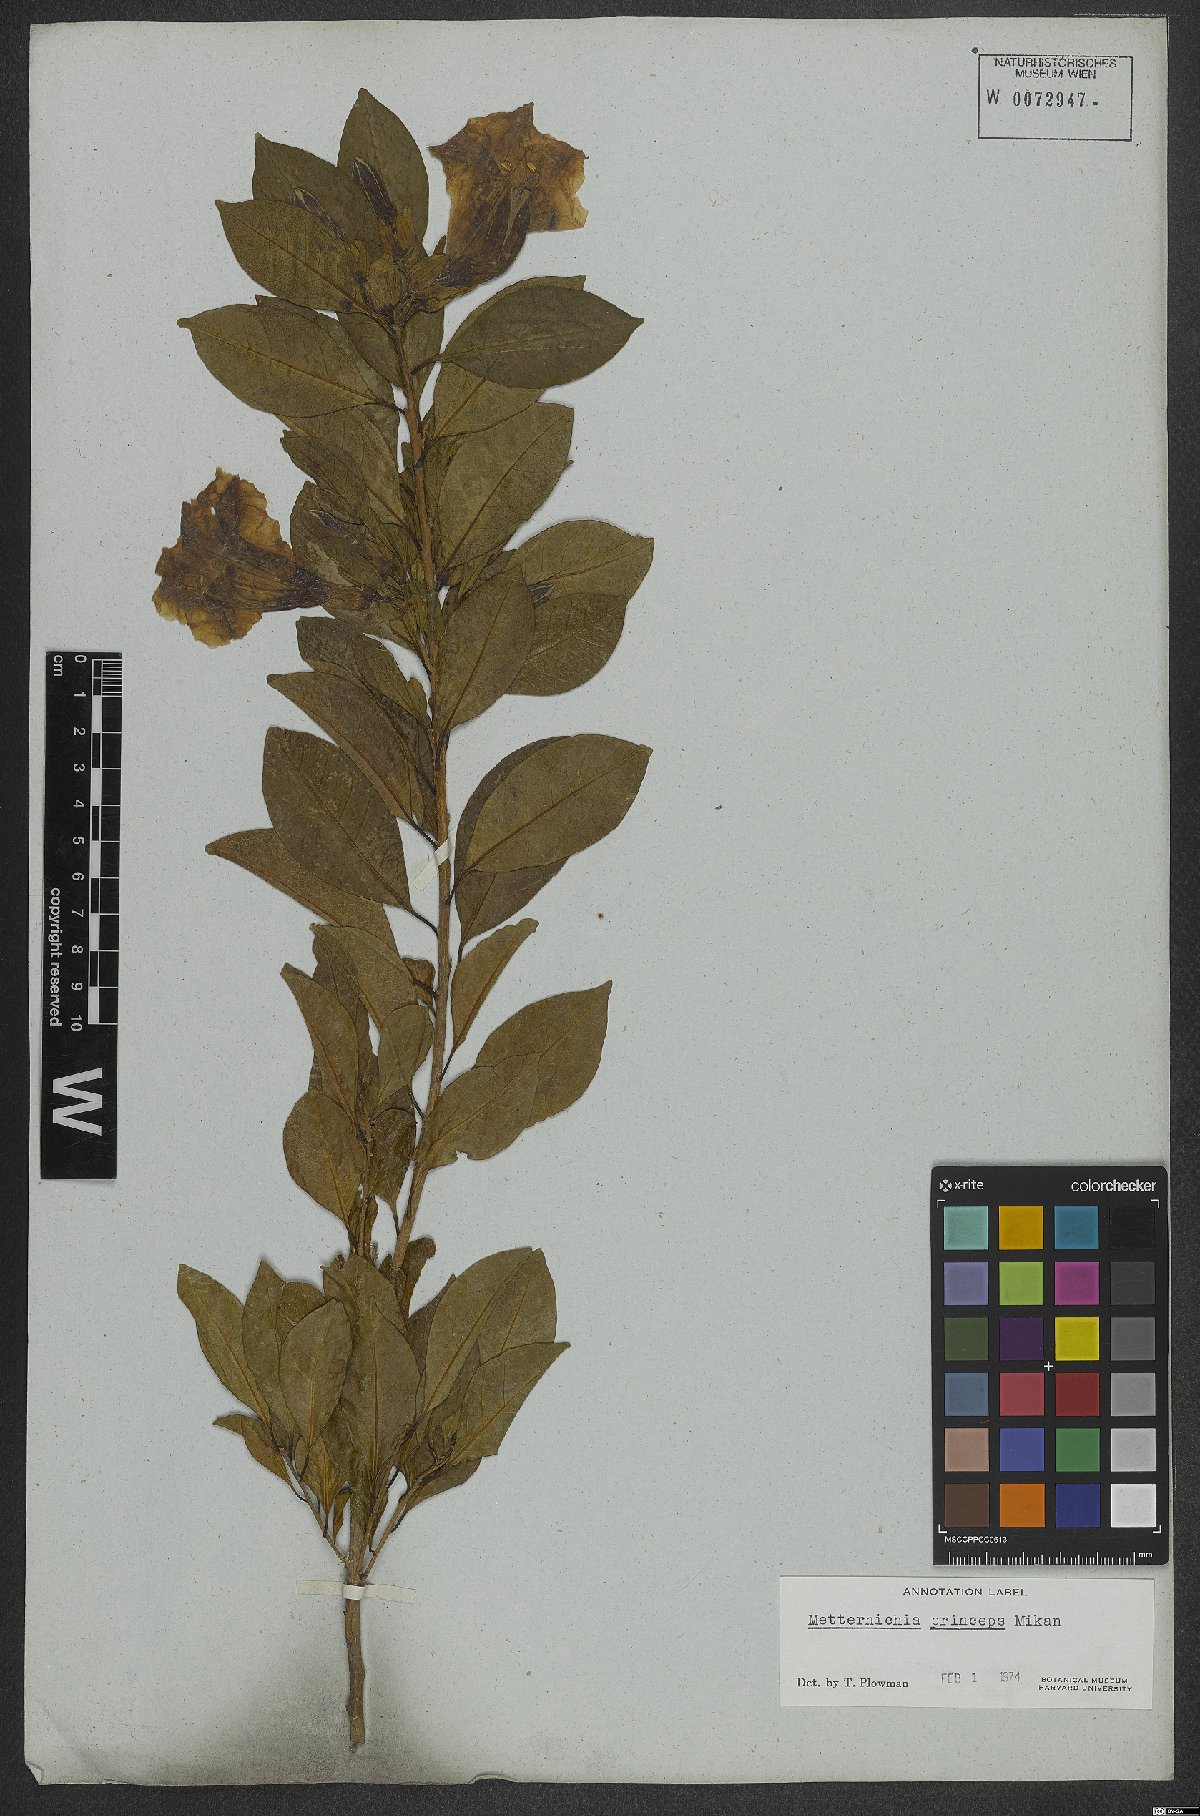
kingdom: Plantae
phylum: Tracheophyta
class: Magnoliopsida
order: Solanales
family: Solanaceae
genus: Metternichia
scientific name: Metternichia principis
